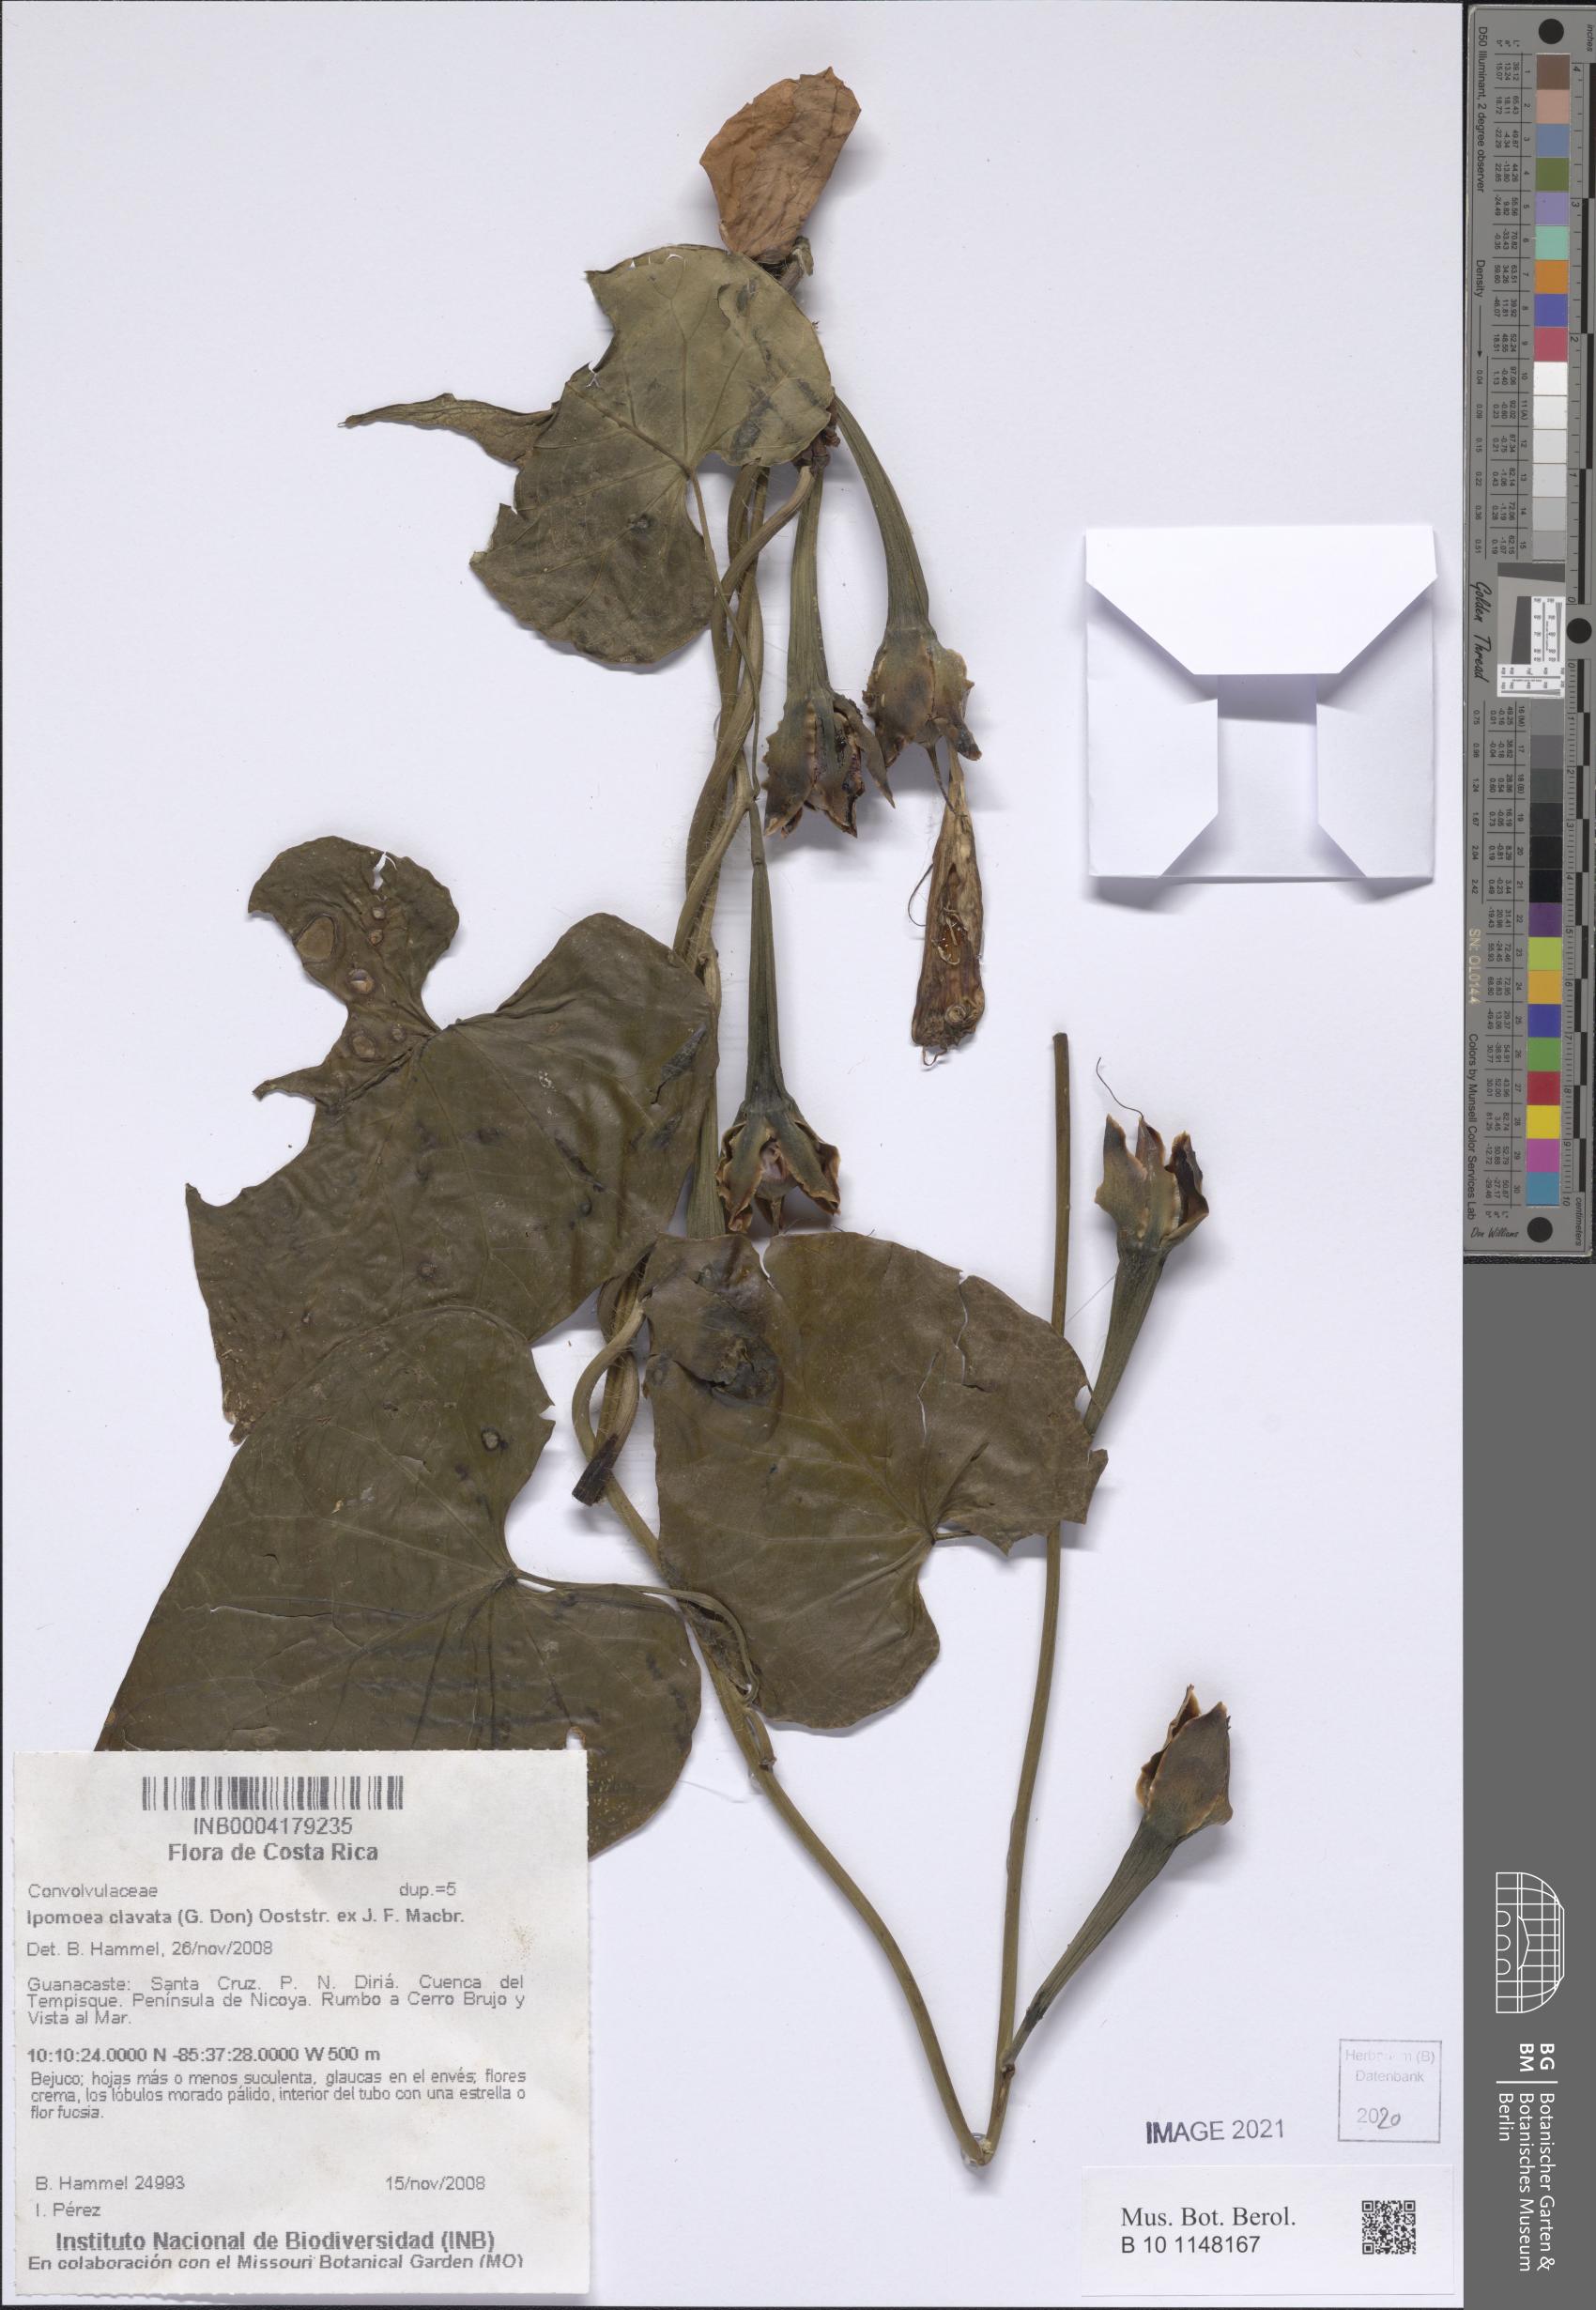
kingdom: Plantae
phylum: Tracheophyta
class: Magnoliopsida
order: Solanales
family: Convolvulaceae
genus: Ipomoea
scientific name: Ipomoea clavata
